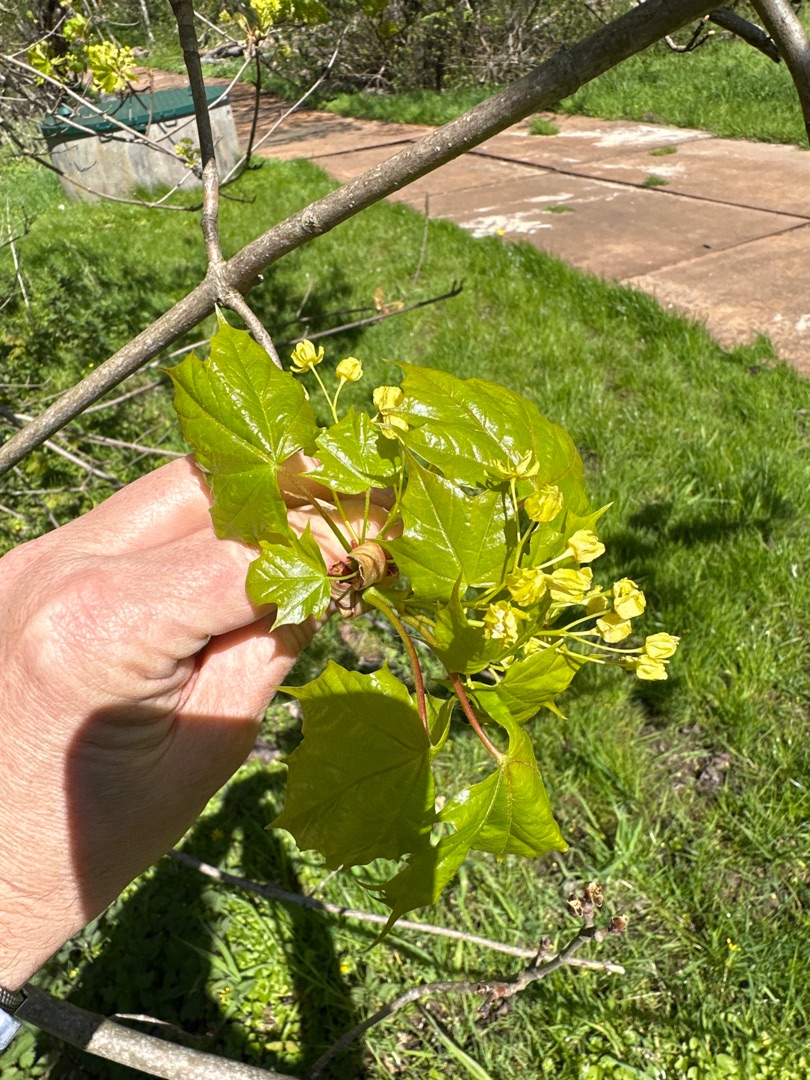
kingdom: Plantae
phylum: Tracheophyta
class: Magnoliopsida
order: Sapindales
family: Sapindaceae
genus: Acer
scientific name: Acer platanoides
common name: Spids-løn
